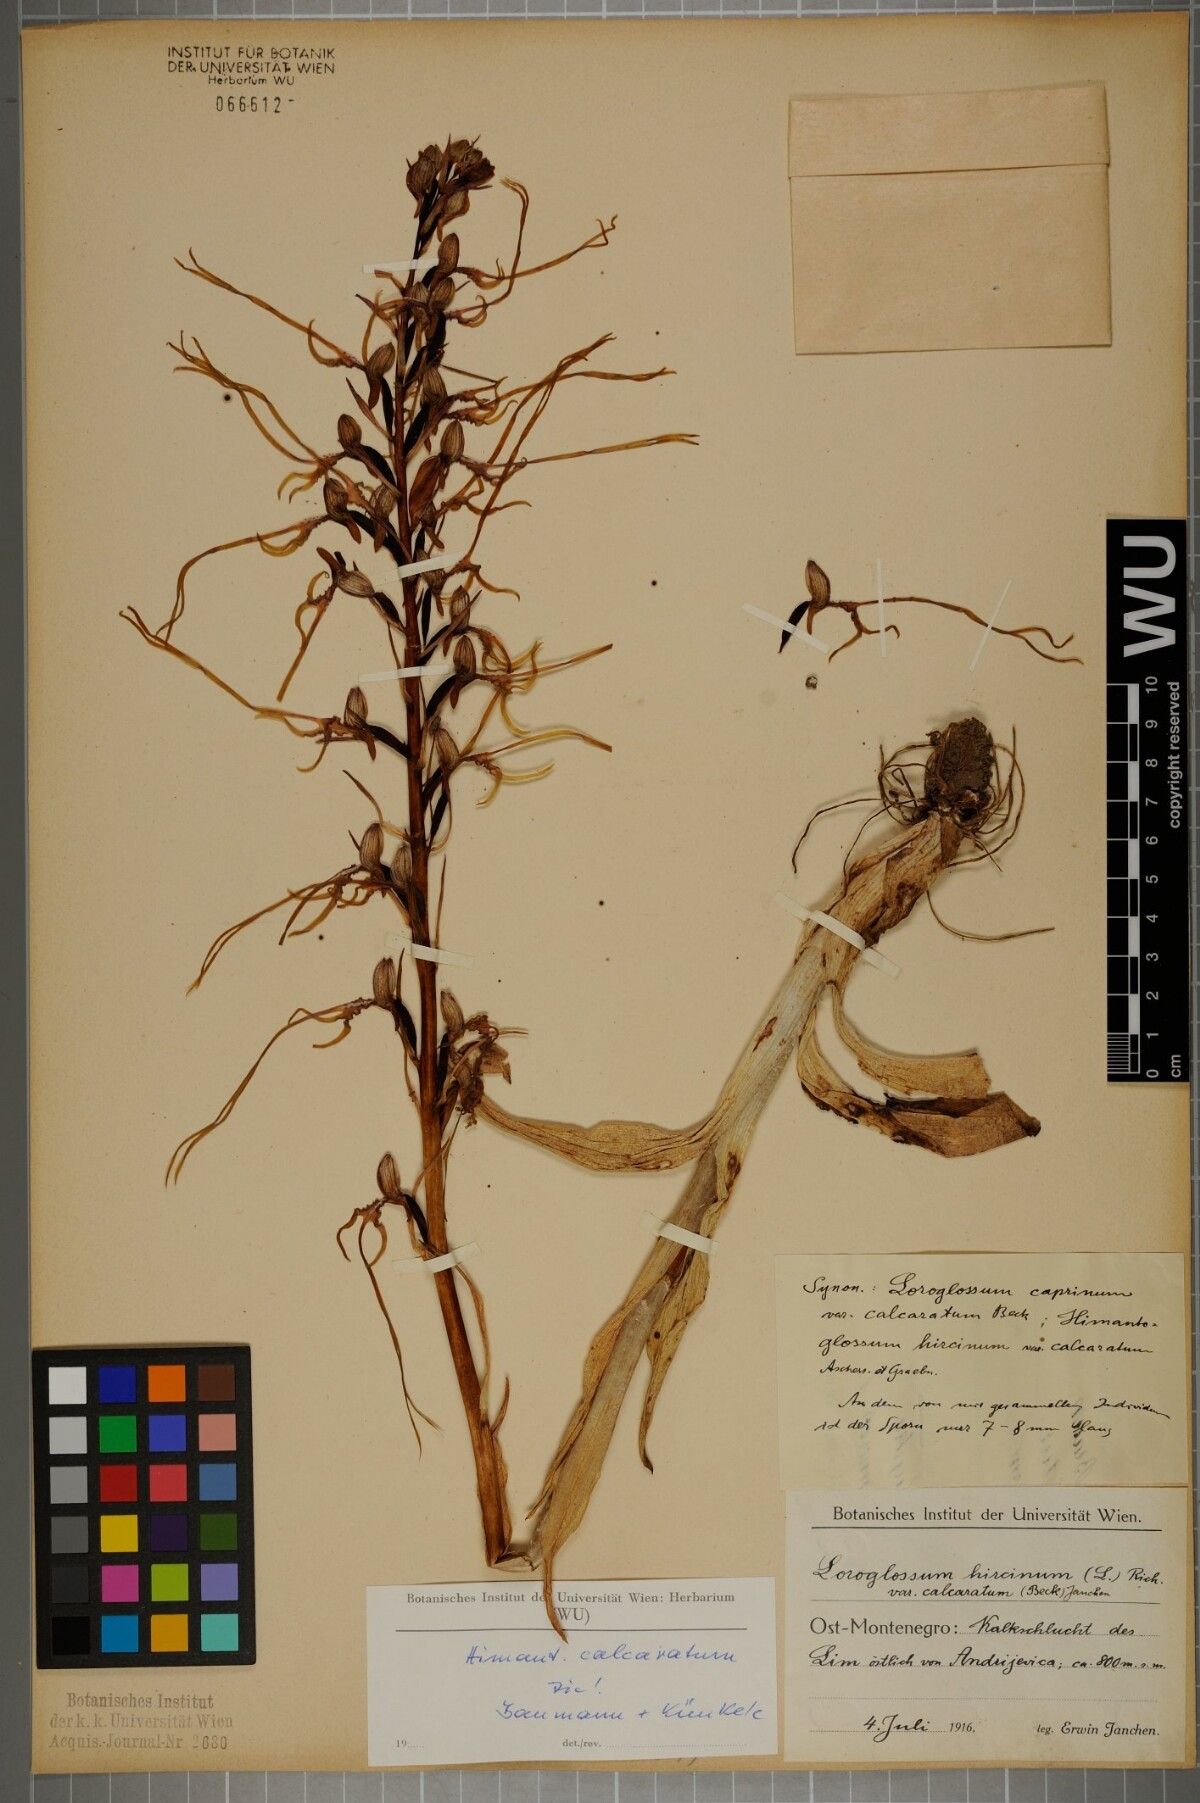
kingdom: Plantae
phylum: Tracheophyta
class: Liliopsida
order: Asparagales
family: Orchidaceae
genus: Himantoglossum
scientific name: Himantoglossum calcaratum
